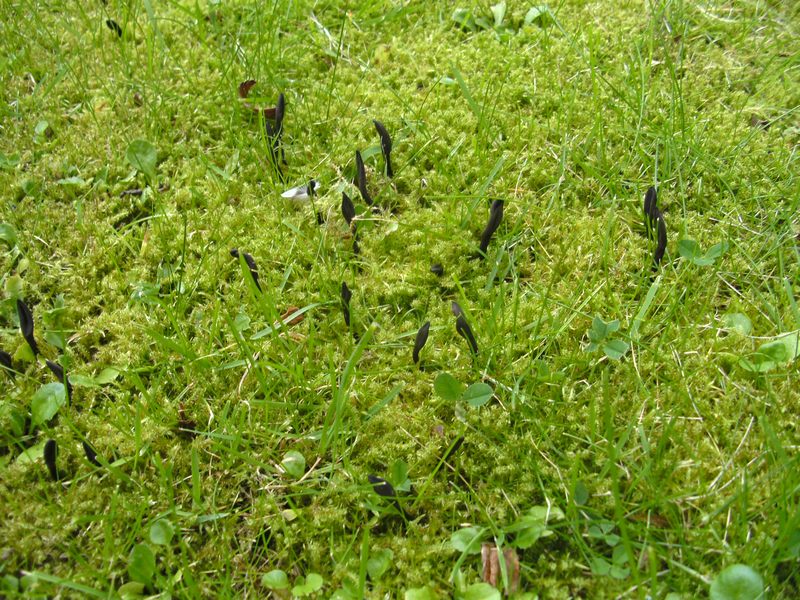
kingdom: Fungi
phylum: Ascomycota
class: Geoglossomycetes
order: Geoglossales
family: Geoglossaceae
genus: Geoglossum
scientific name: Geoglossum umbratile
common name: slank jordtunge
